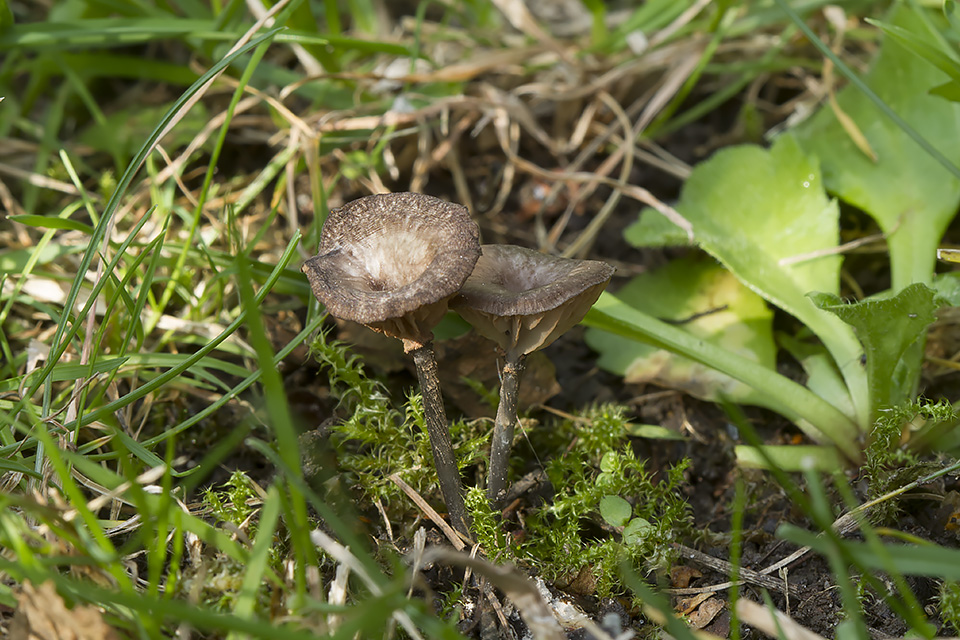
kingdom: Fungi
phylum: Basidiomycota
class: Agaricomycetes
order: Agaricales
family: Entolomataceae
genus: Entoloma
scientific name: Entoloma incarnatofuscescens
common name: tragt-rødblad
